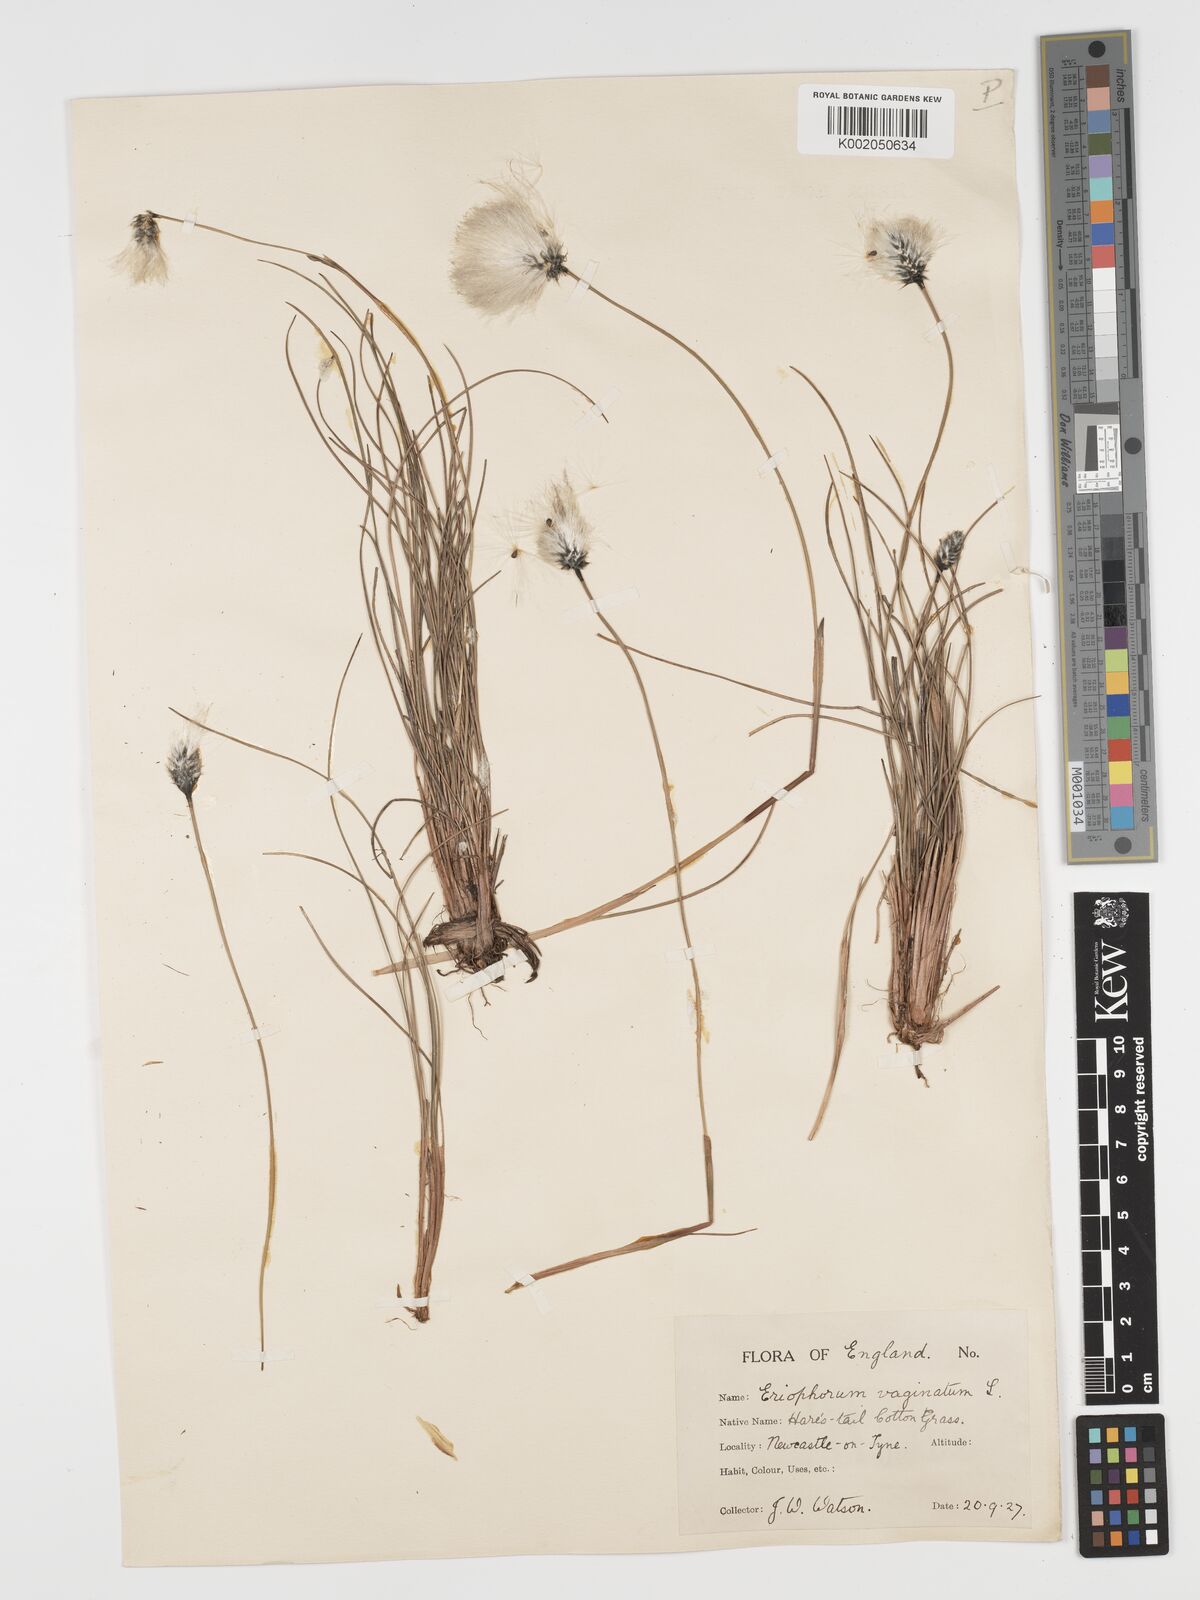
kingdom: Plantae
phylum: Tracheophyta
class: Liliopsida
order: Poales
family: Cyperaceae
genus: Eriophorum
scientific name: Eriophorum vaginatum
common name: Hare's-tail cottongrass
